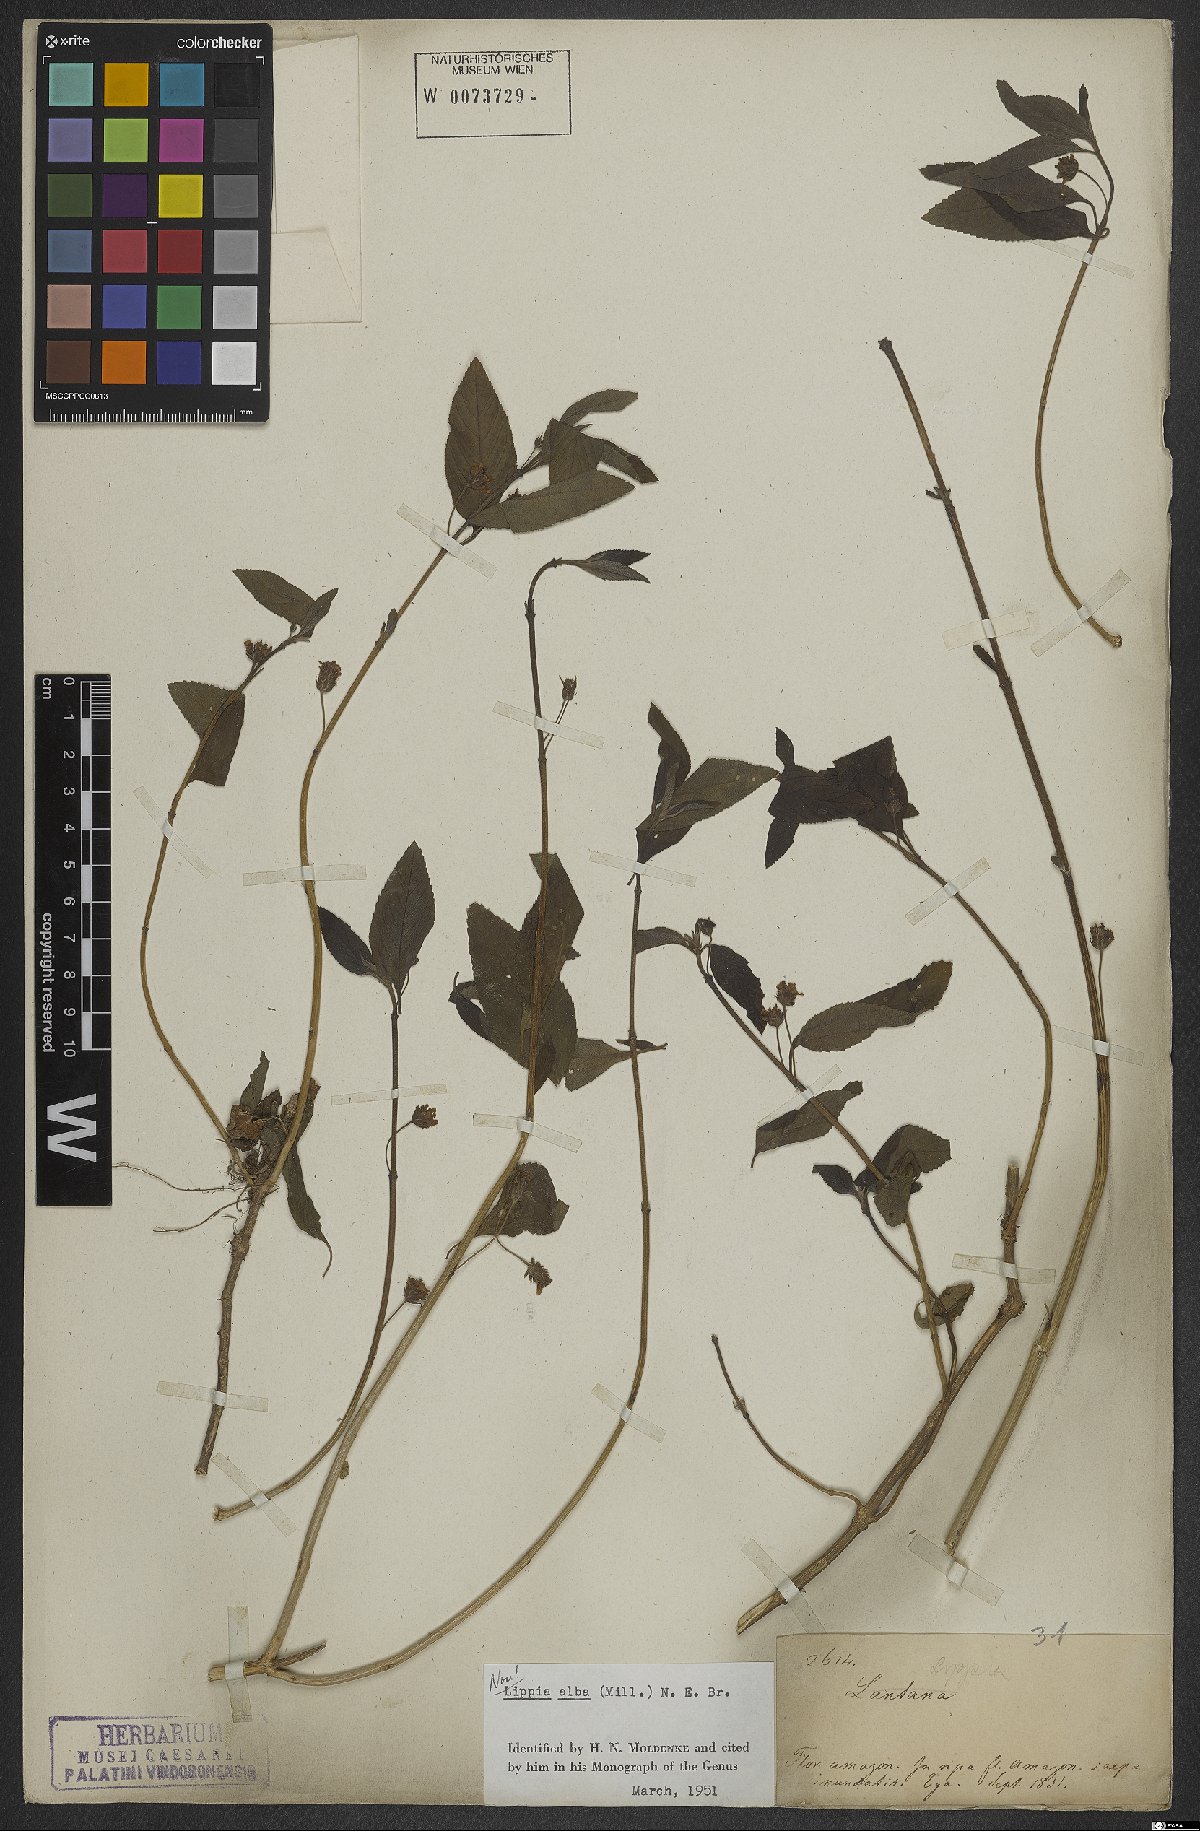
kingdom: Plantae
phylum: Tracheophyta
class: Magnoliopsida
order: Lamiales
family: Verbenaceae
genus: Lippia
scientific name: Lippia alba
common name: Bushy matgrass
